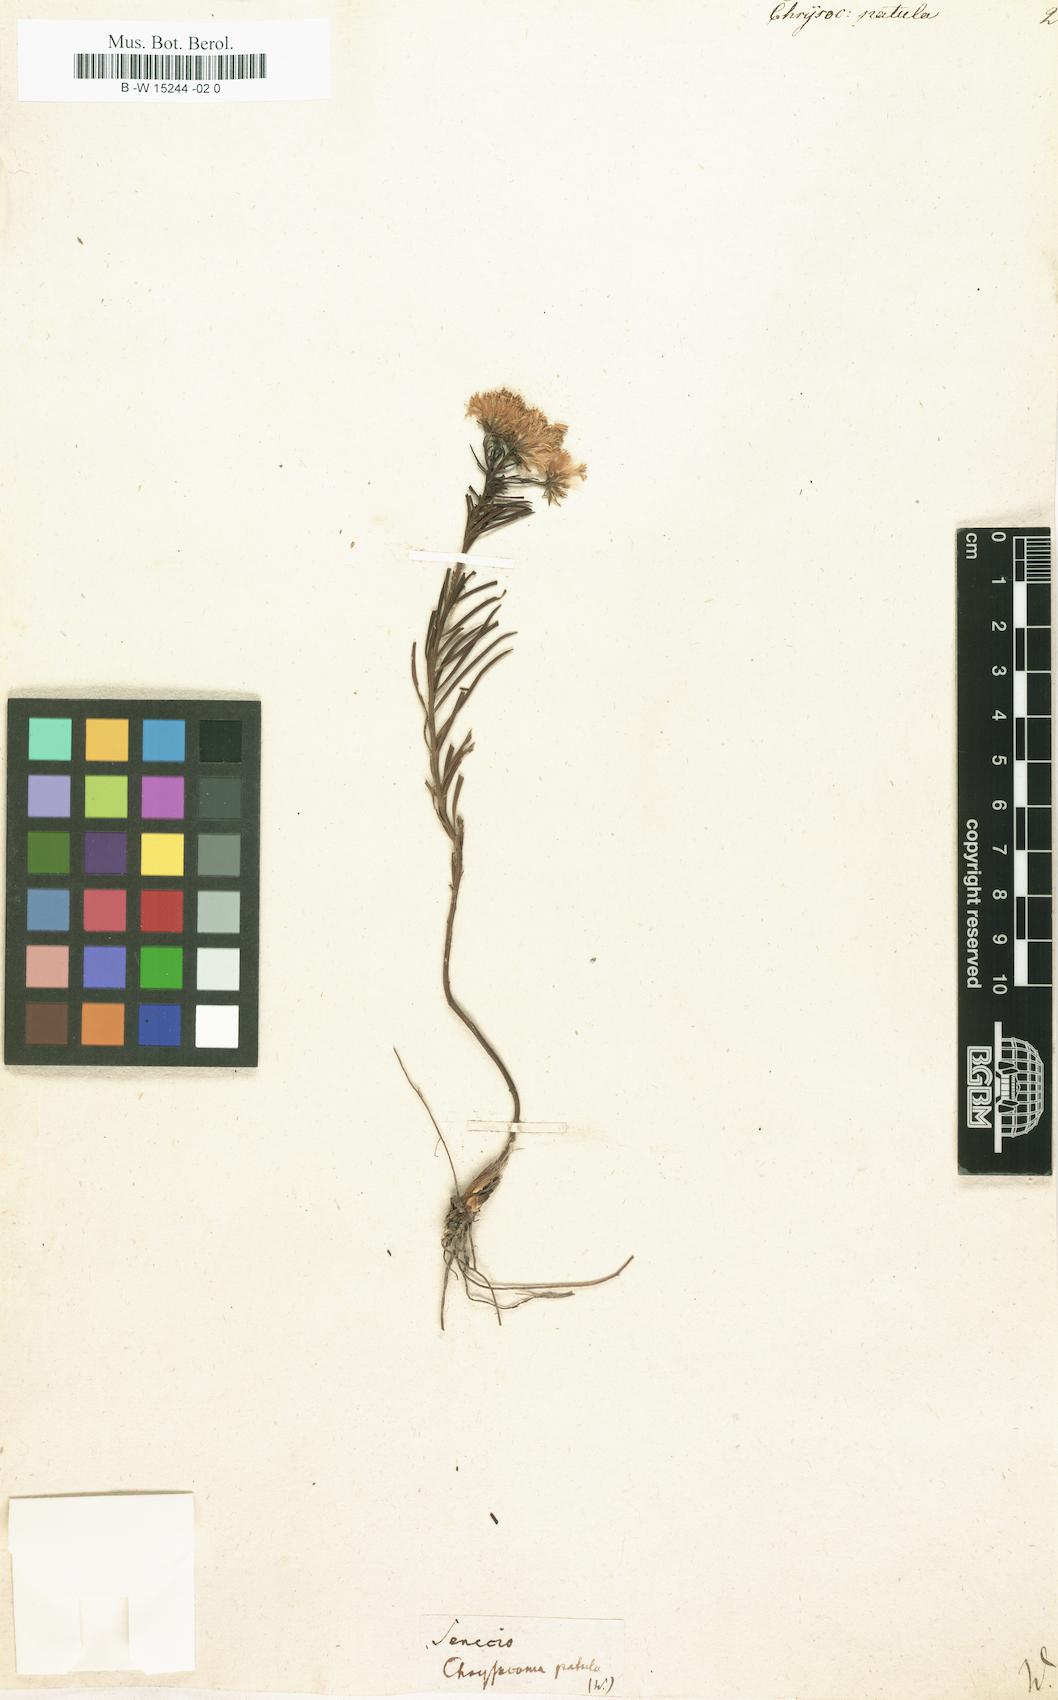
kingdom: Plantae
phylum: Tracheophyta
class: Magnoliopsida
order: Asterales
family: Asteraceae
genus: Chrysocoma
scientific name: Chrysocoma ciliata
